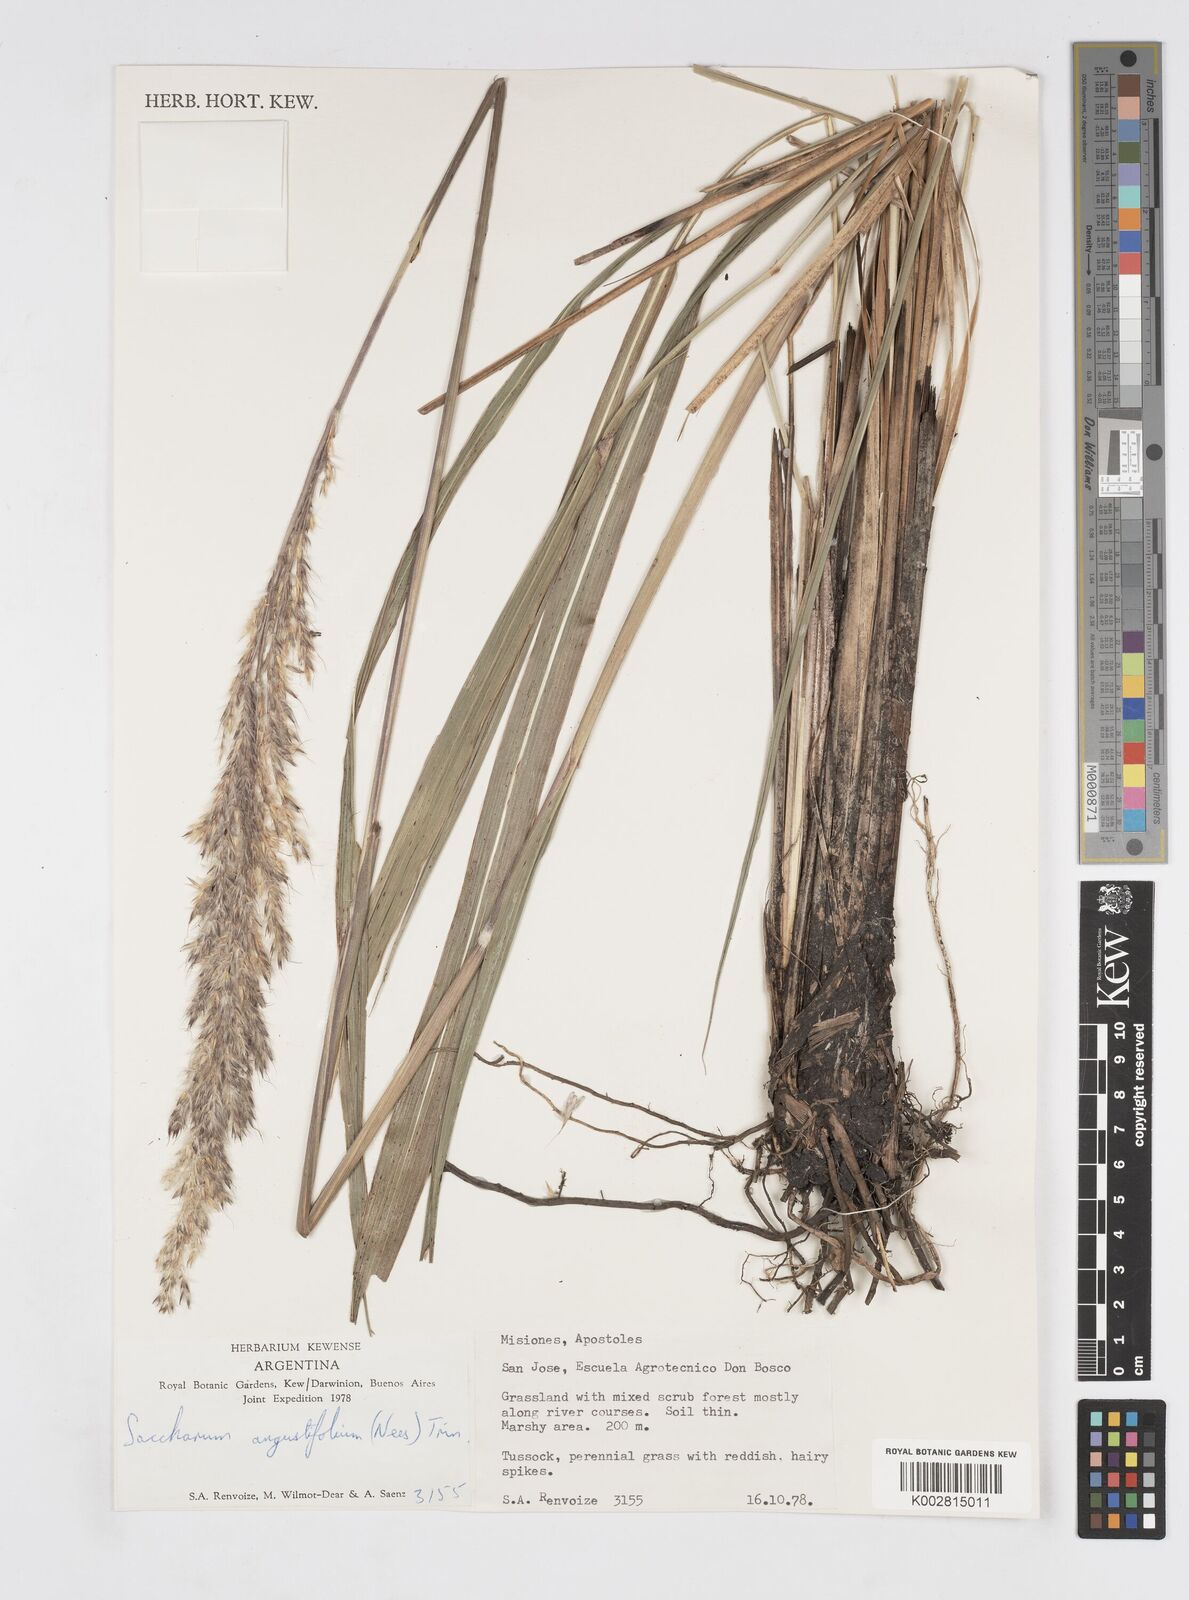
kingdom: Plantae
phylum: Tracheophyta
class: Liliopsida
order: Poales
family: Poaceae
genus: Saccharum
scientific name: Saccharum angustifolium
